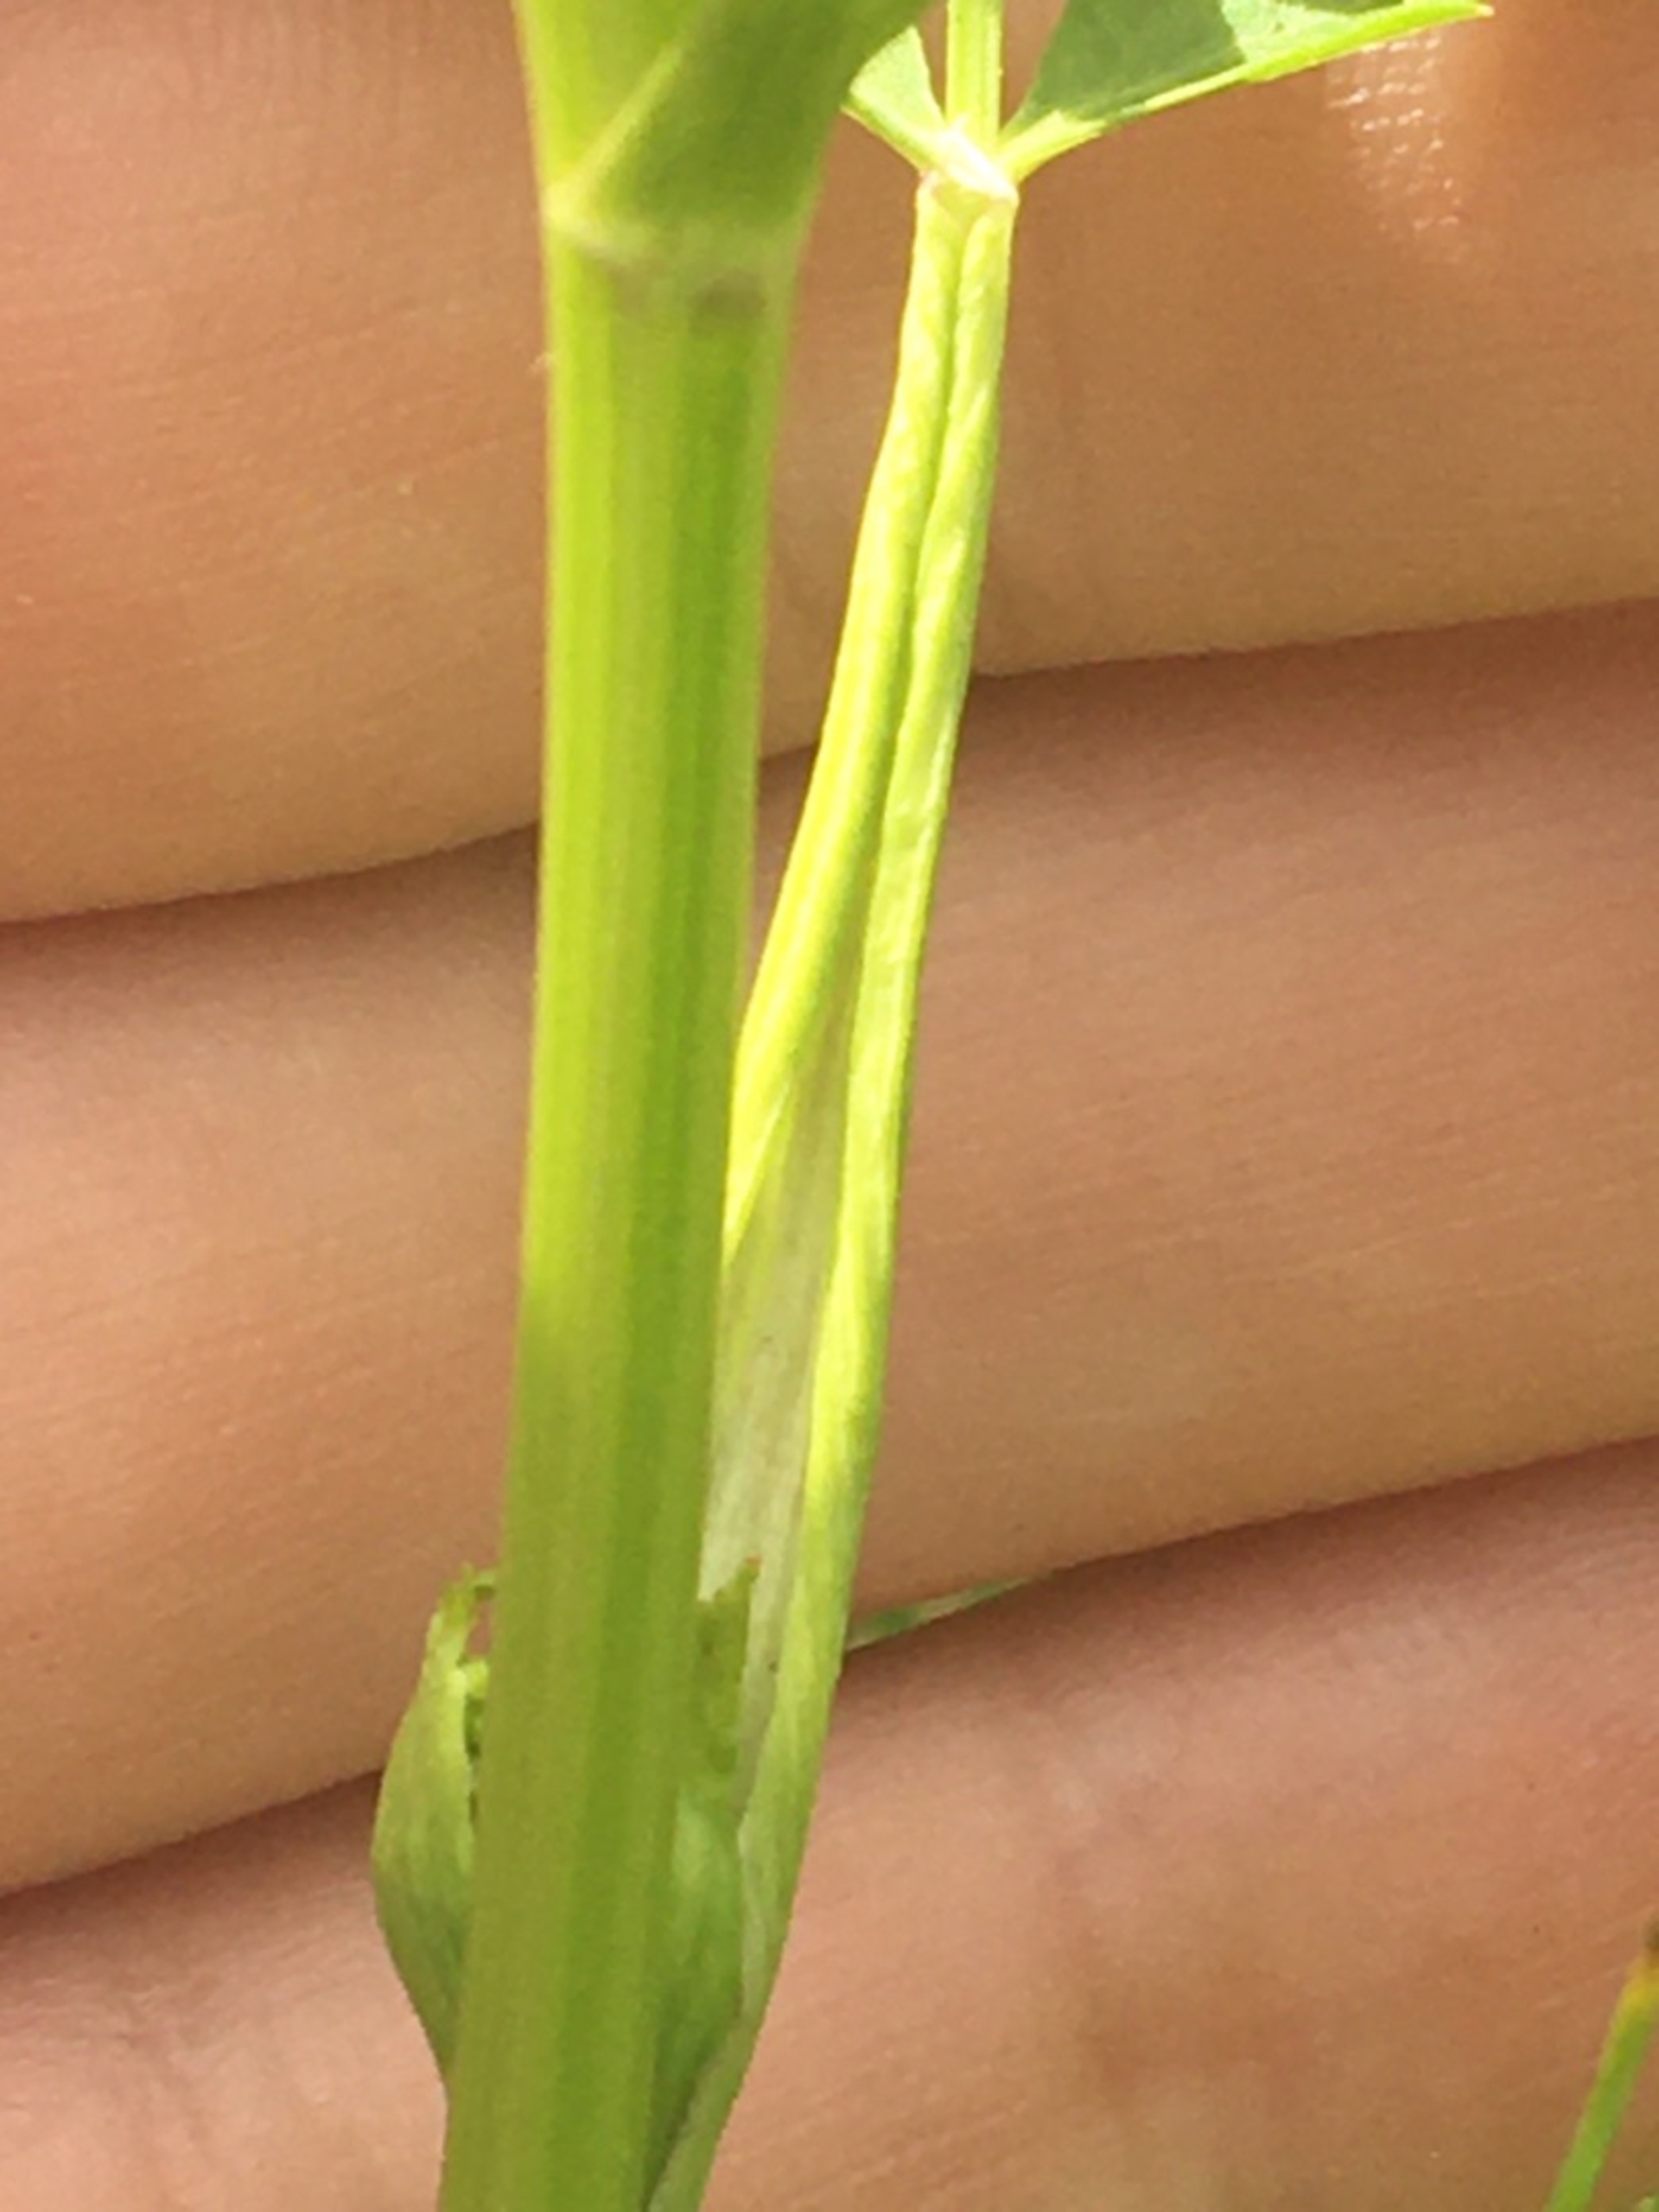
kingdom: Plantae
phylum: Tracheophyta
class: Magnoliopsida
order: Apiales
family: Apiaceae
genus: Pastinaca
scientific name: Pastinaca sativa
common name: Pastinak
